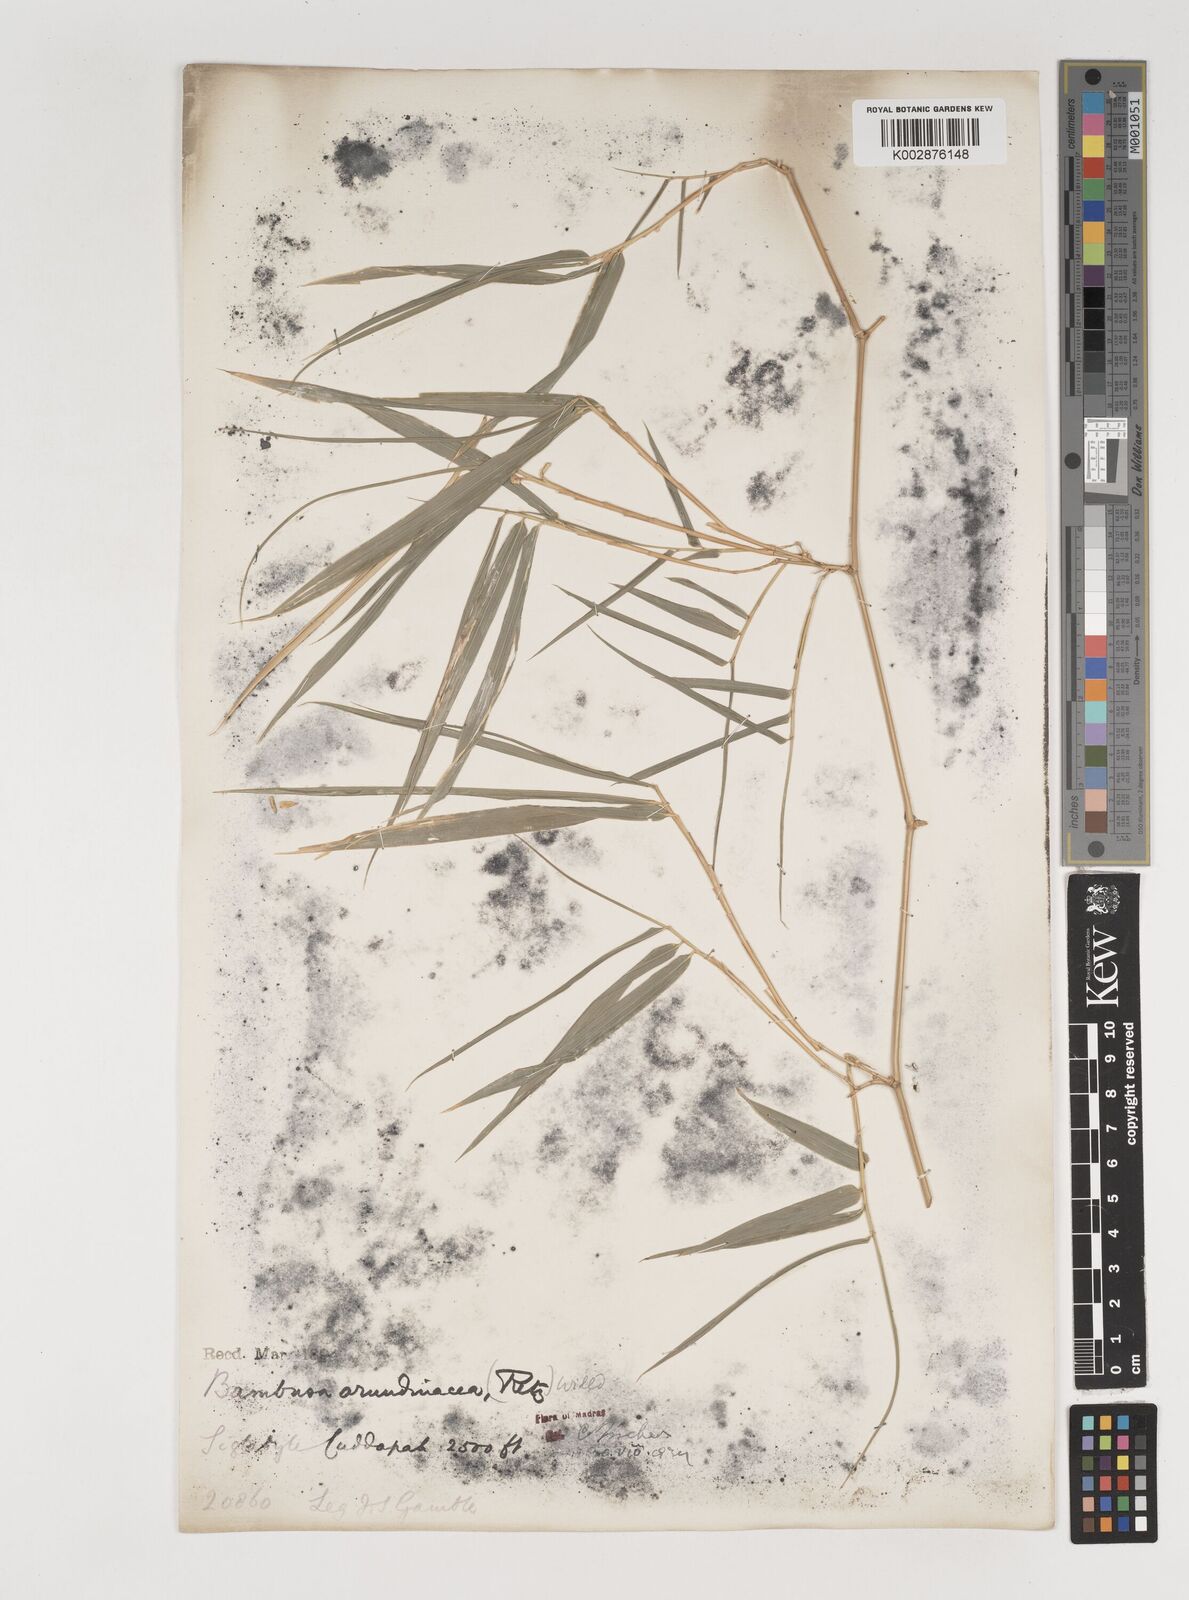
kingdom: Plantae
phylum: Tracheophyta
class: Liliopsida
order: Poales
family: Poaceae
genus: Bambusa
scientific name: Bambusa bambos
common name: Indian thorny bamboo
